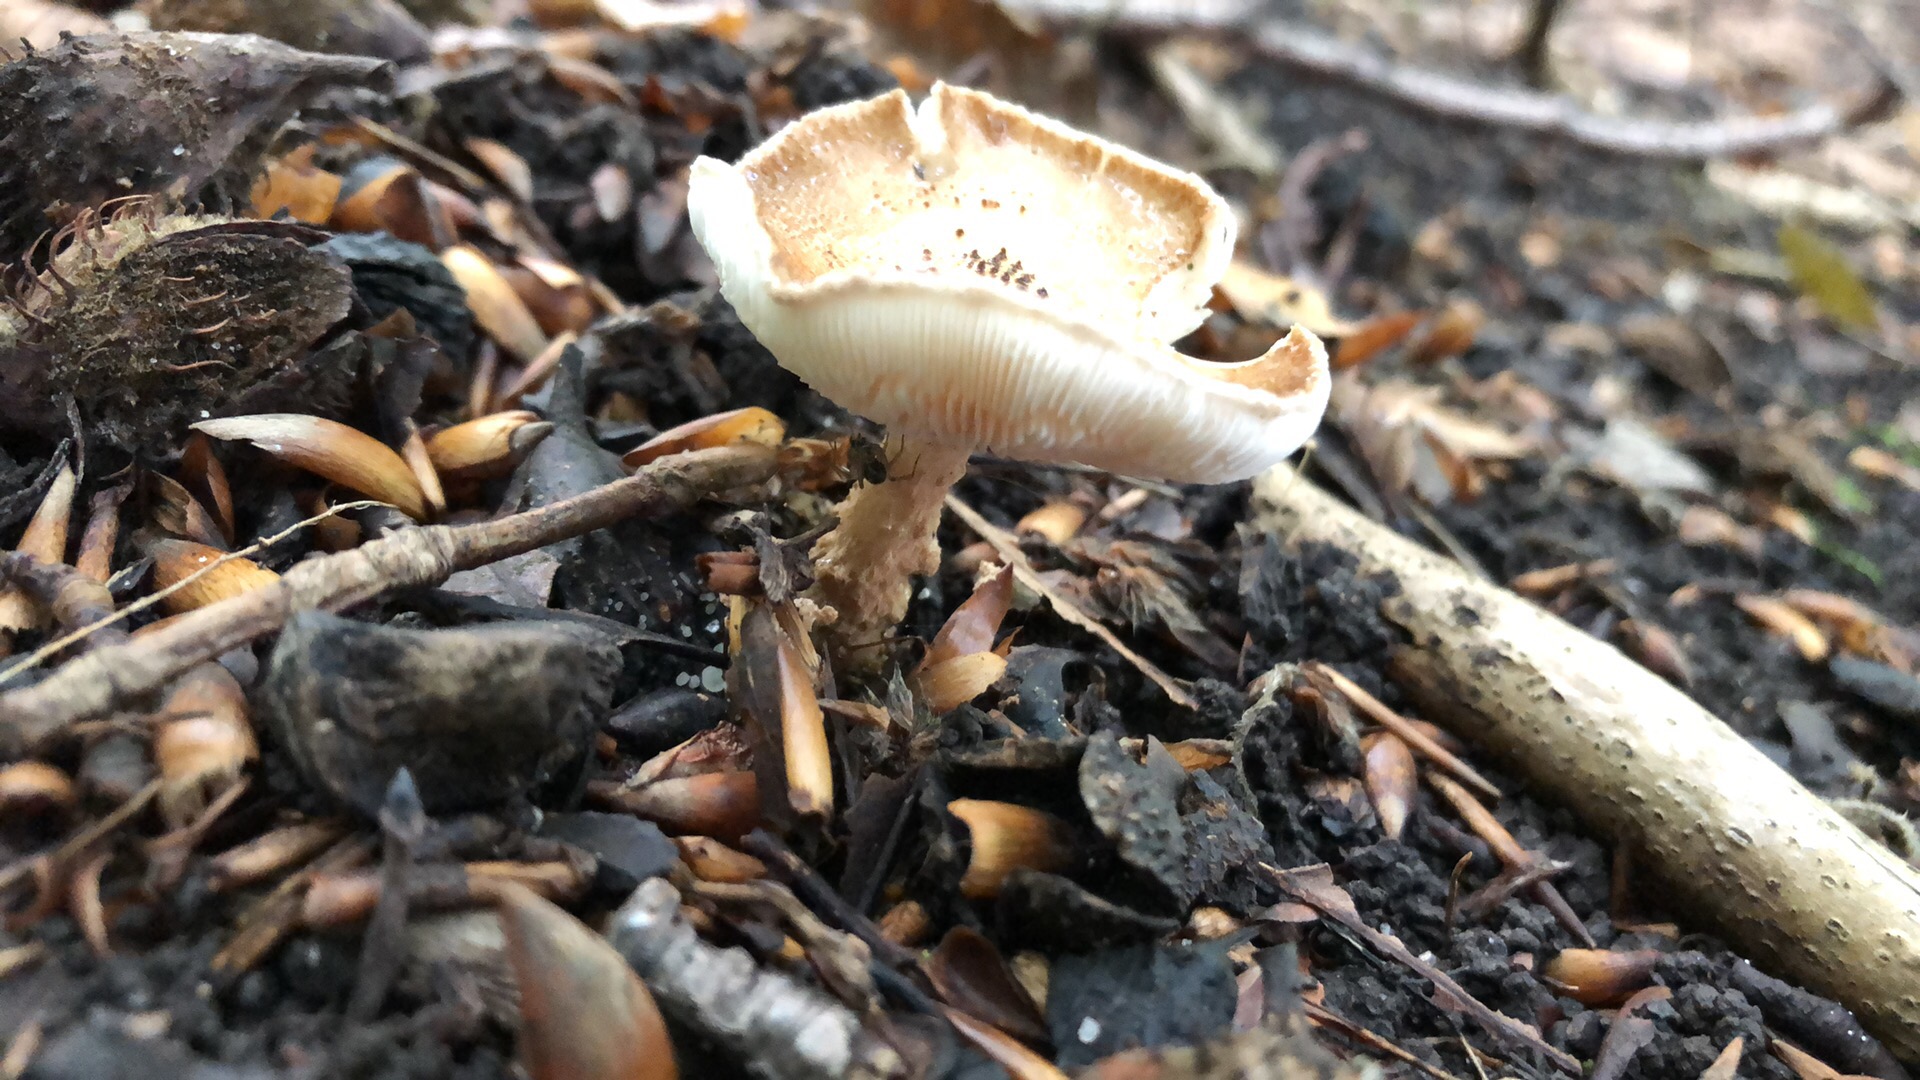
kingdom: Fungi
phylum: Basidiomycota
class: Agaricomycetes
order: Agaricales
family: Agaricaceae
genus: Echinoderma
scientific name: Echinoderma jacobi
